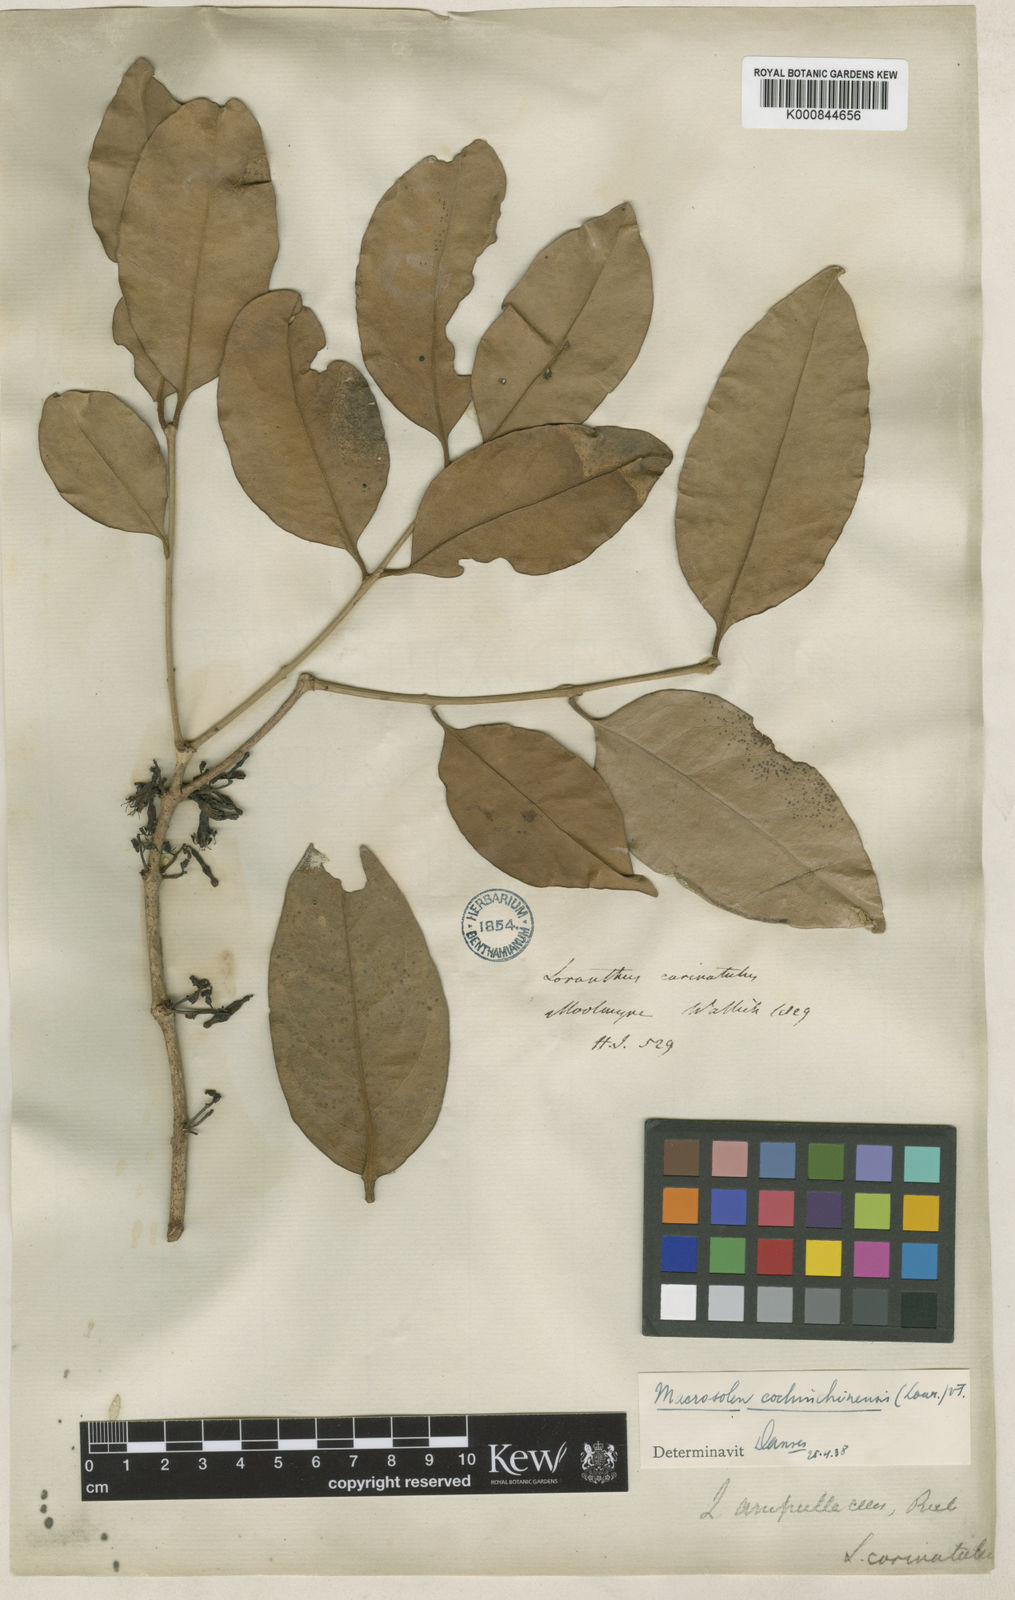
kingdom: Plantae
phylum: Tracheophyta
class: Magnoliopsida
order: Santalales
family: Loranthaceae
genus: Macrosolen
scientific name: Macrosolen cochinchinensis
